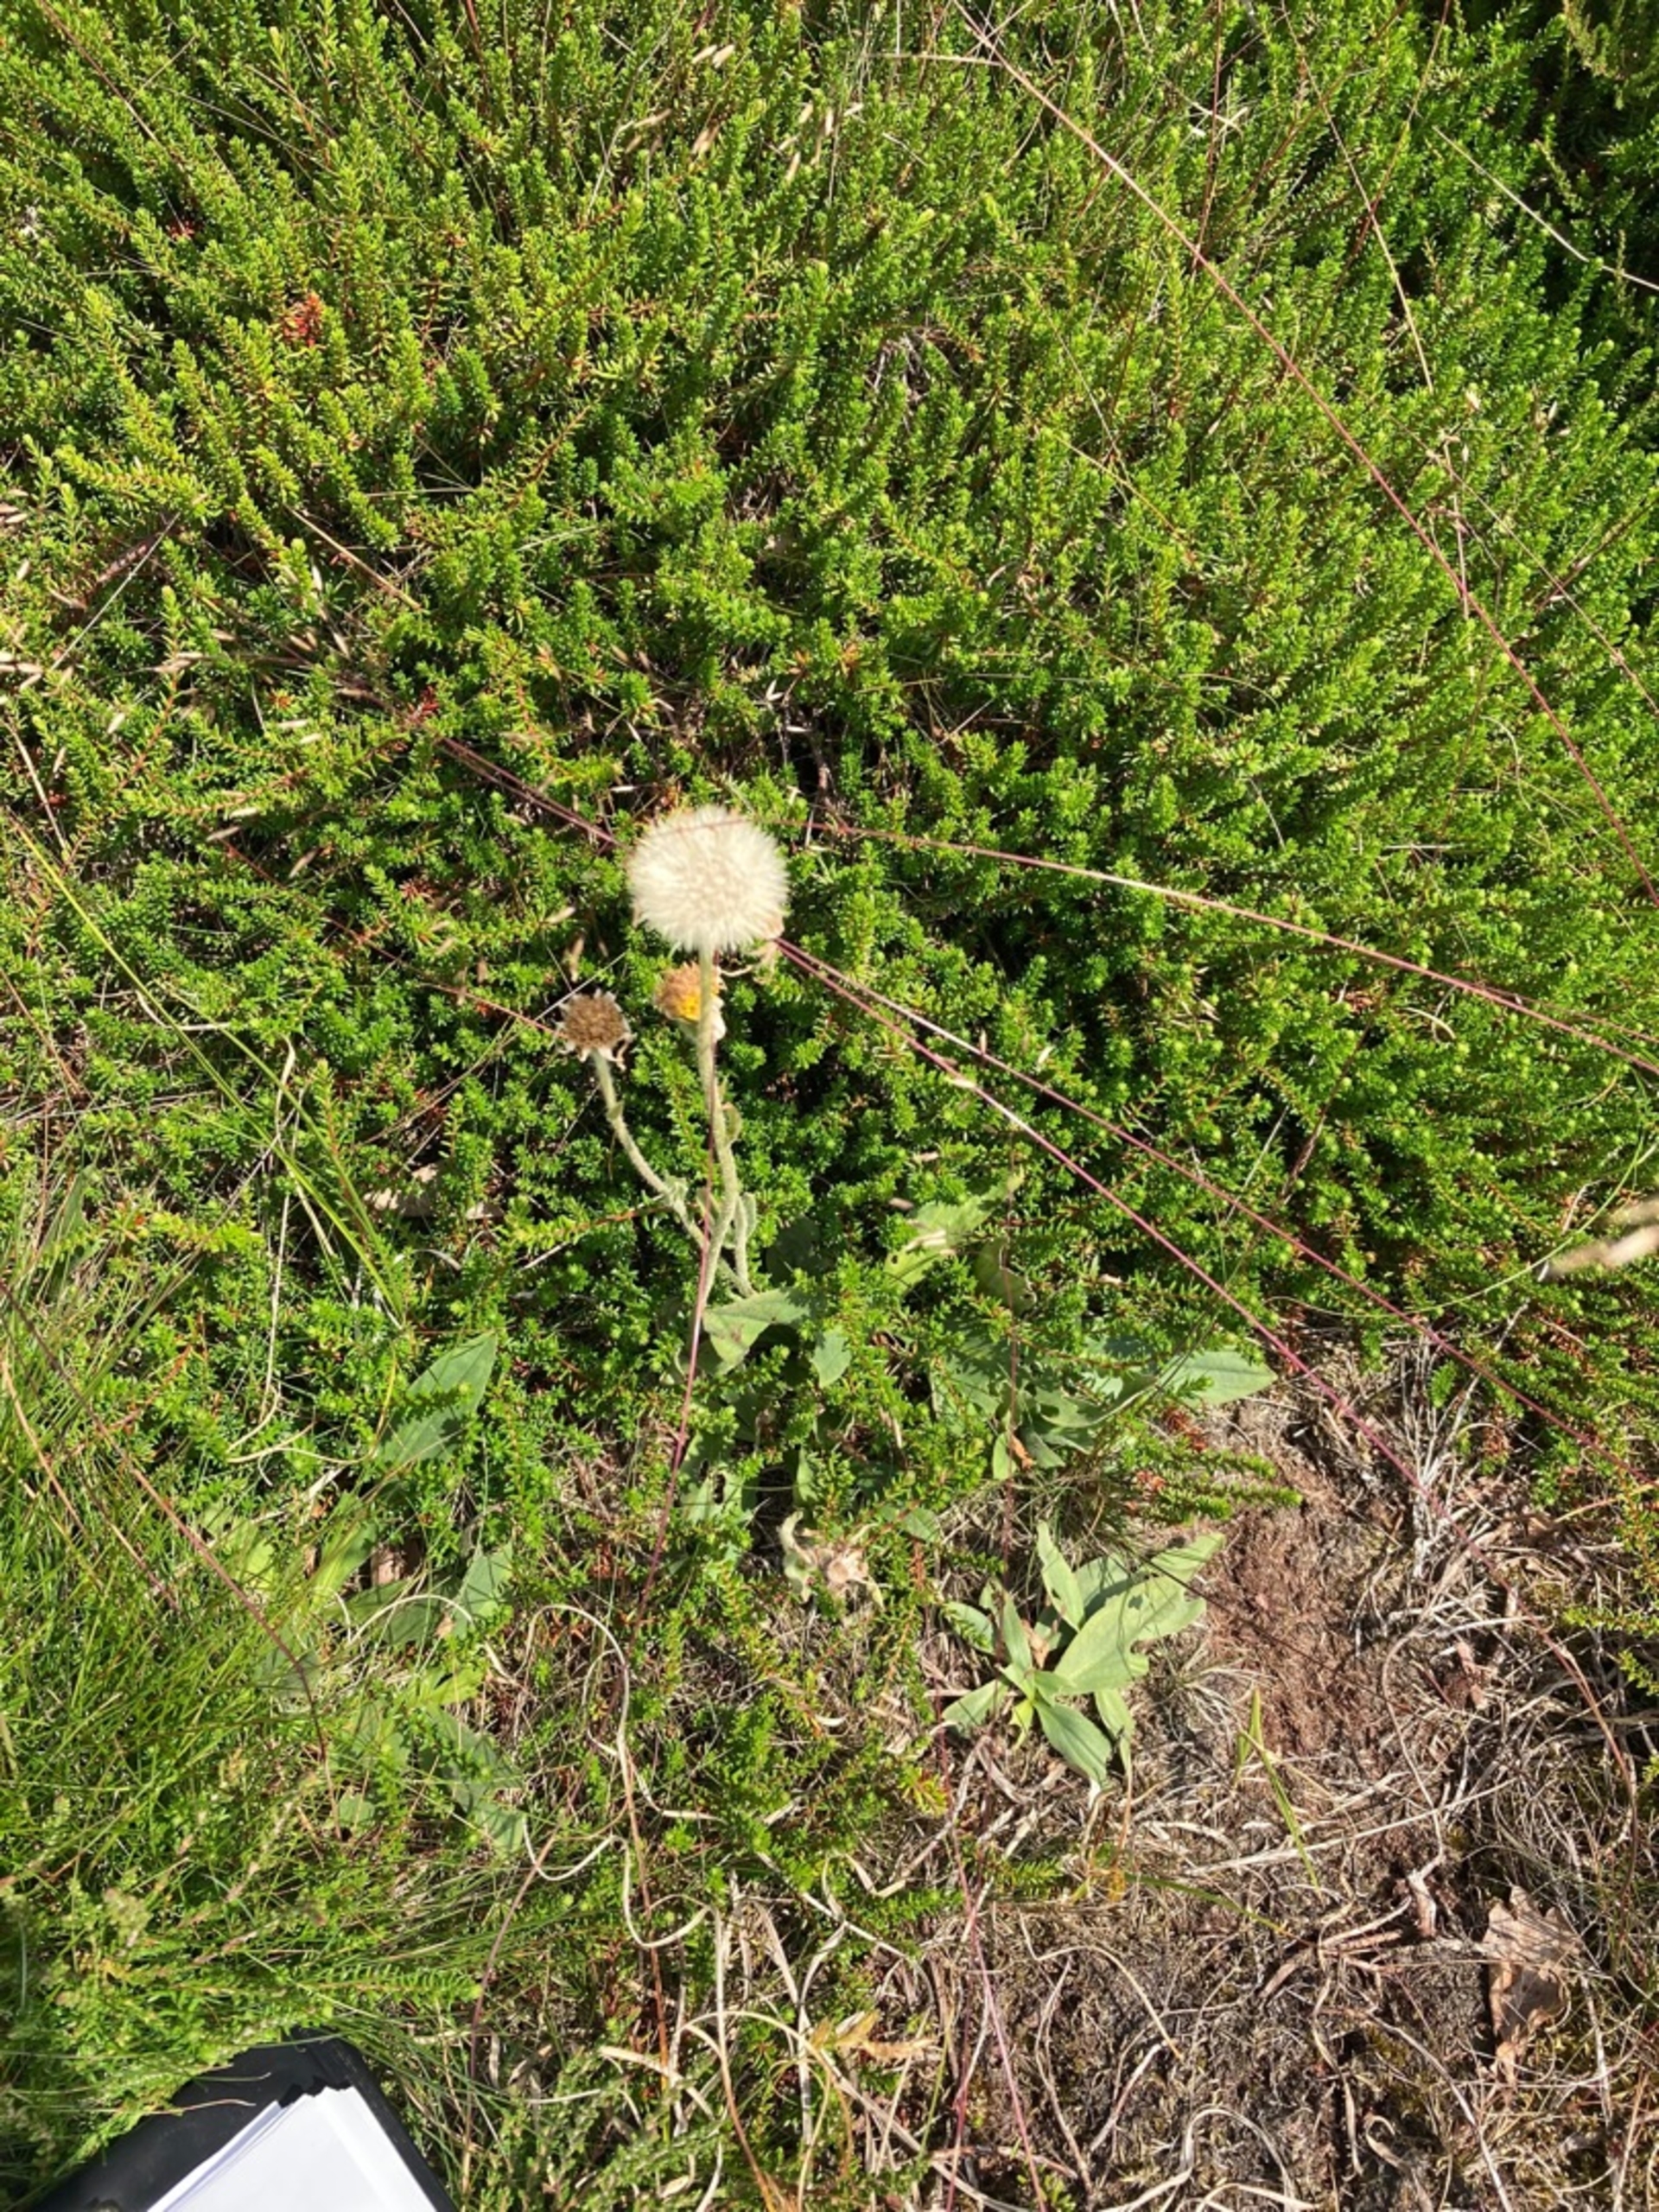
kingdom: Plantae
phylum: Tracheophyta
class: Magnoliopsida
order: Asterales
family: Asteraceae
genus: Arnica
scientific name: Arnica montana
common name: Guldblomme
